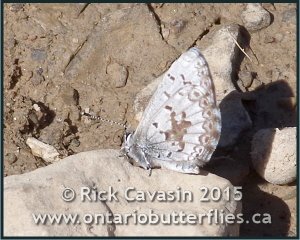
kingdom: Animalia
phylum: Arthropoda
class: Insecta
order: Lepidoptera
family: Lycaenidae
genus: Celastrina
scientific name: Celastrina lucia
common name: Northern Spring Azure
